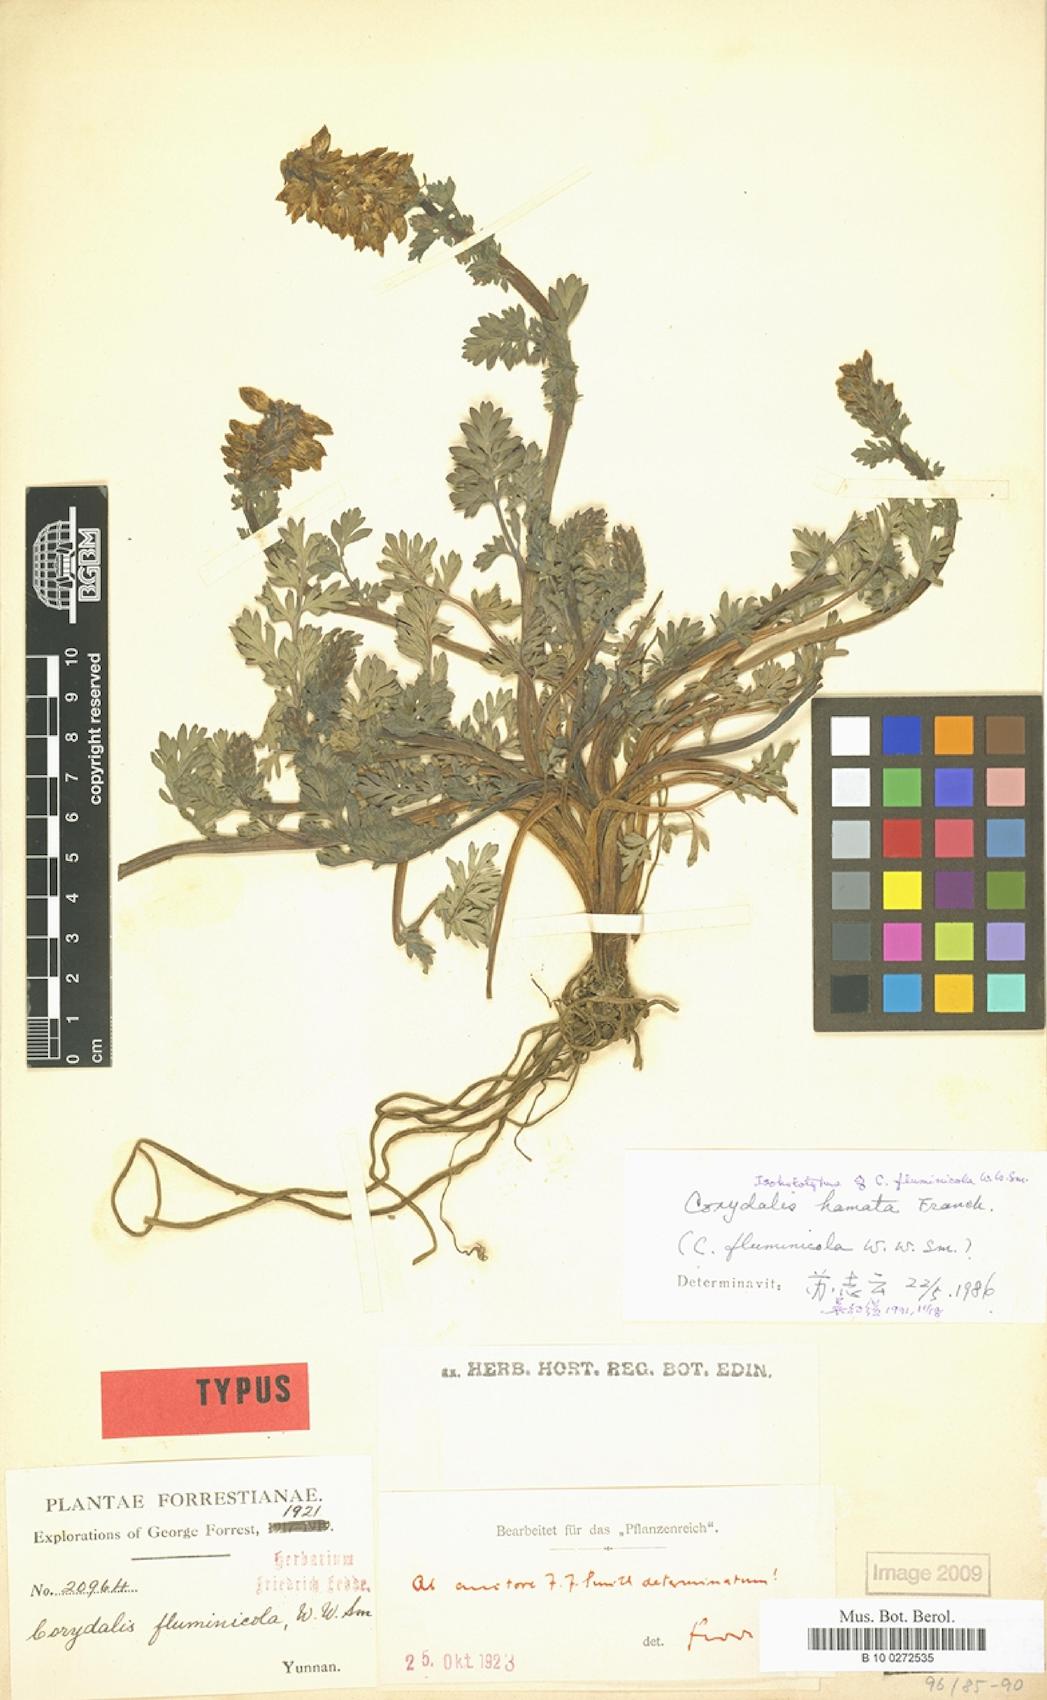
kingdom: Plantae
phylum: Tracheophyta
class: Magnoliopsida
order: Ranunculales
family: Papaveraceae
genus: Corydalis
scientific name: Corydalis hamata
